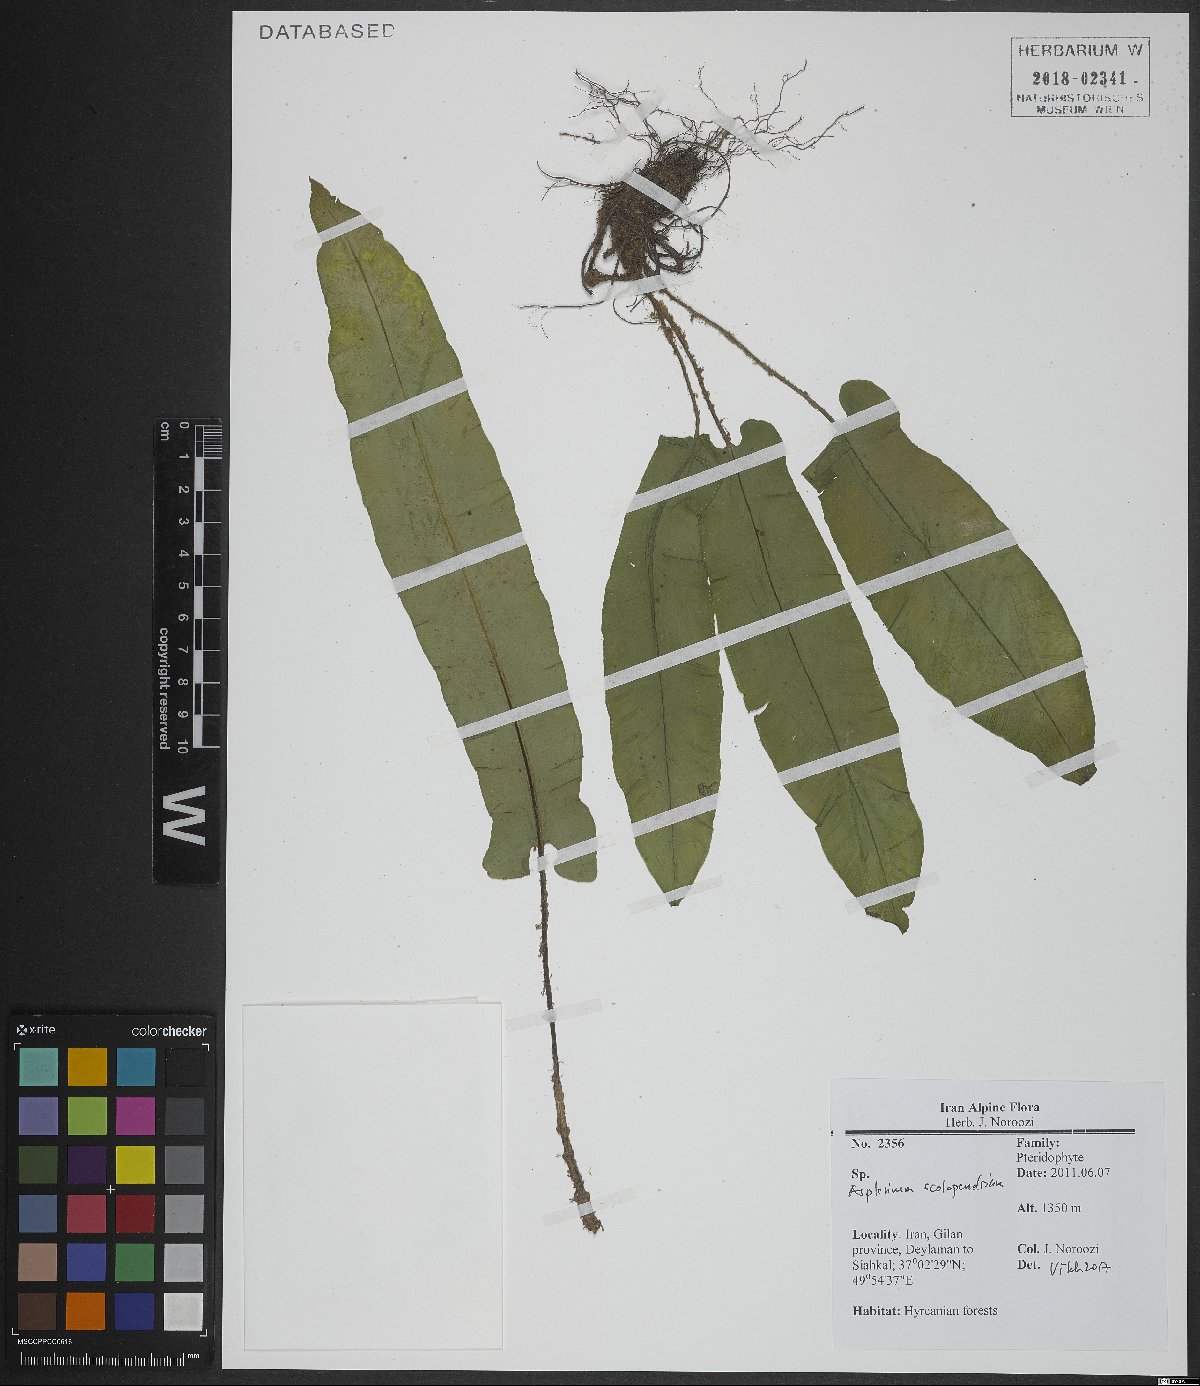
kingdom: Plantae
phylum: Tracheophyta
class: Polypodiopsida
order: Polypodiales
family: Aspleniaceae
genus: Asplenium
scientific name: Asplenium scolopendrium
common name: Hart's-tongue fern
